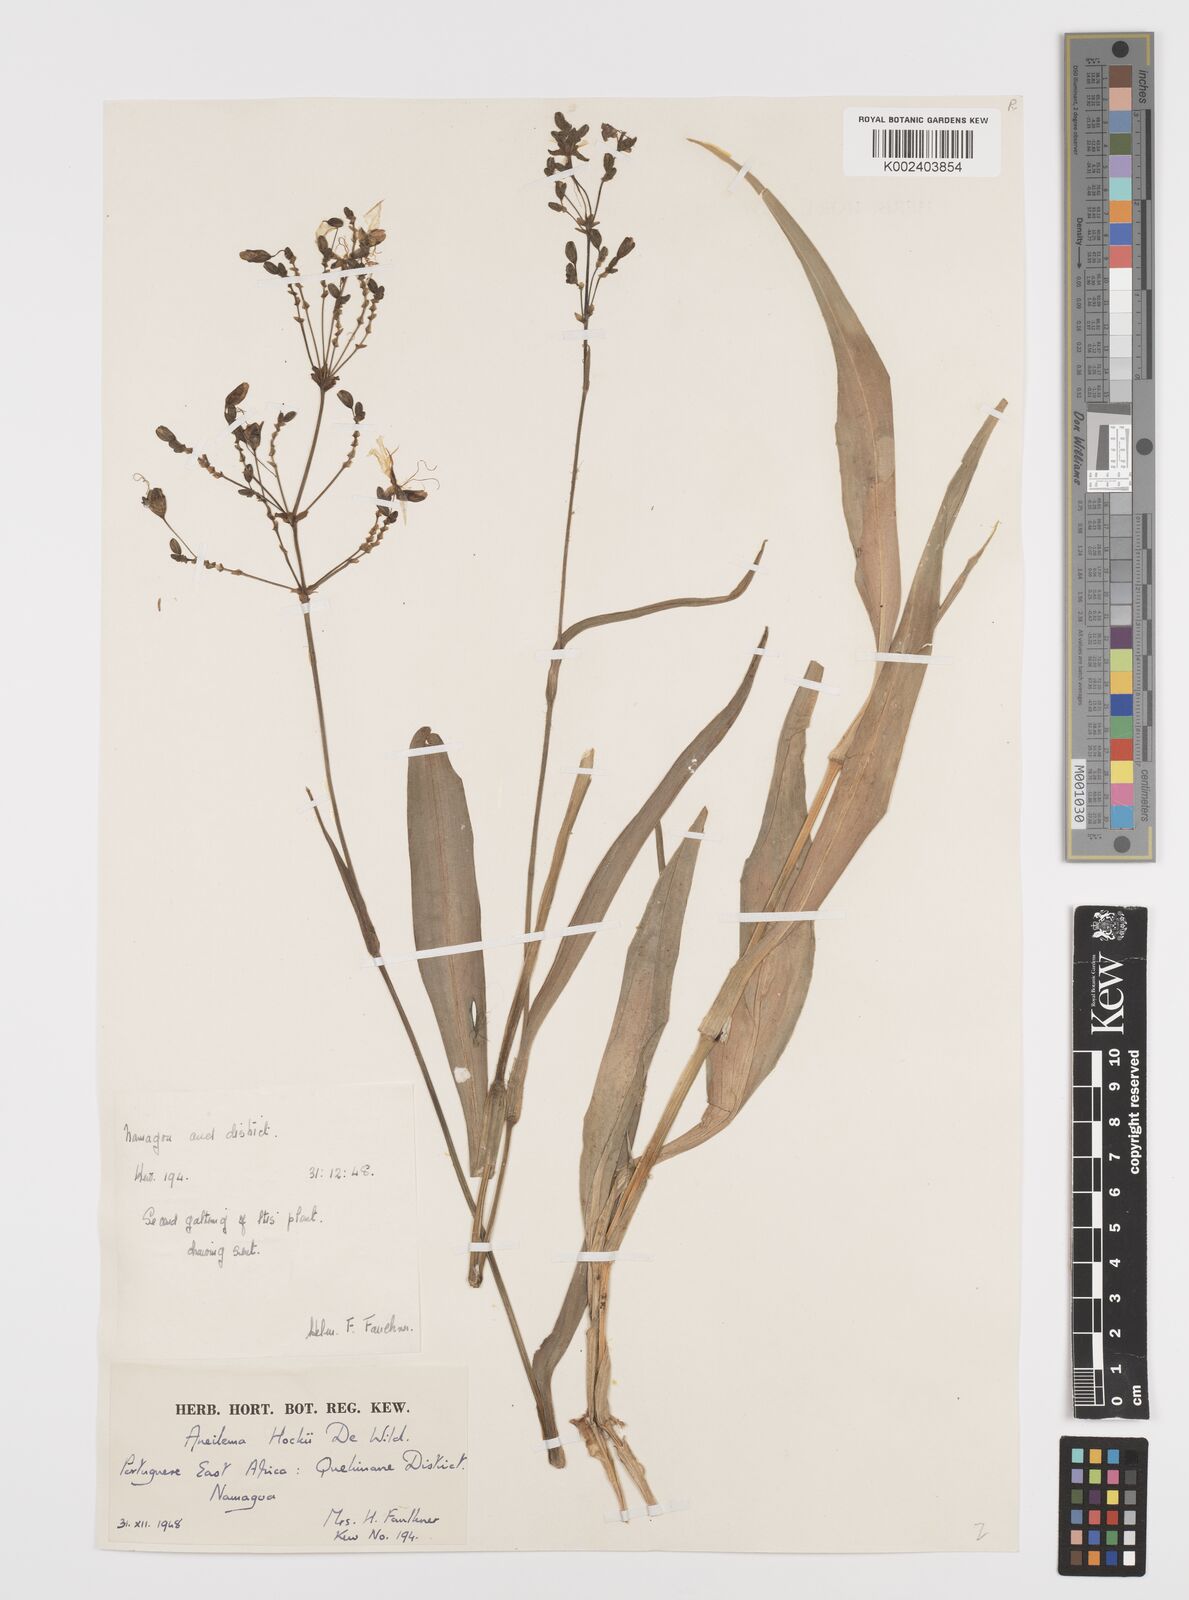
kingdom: Plantae
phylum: Tracheophyta
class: Liliopsida
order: Commelinales
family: Commelinaceae
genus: Aneilema
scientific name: Aneilema hockii
